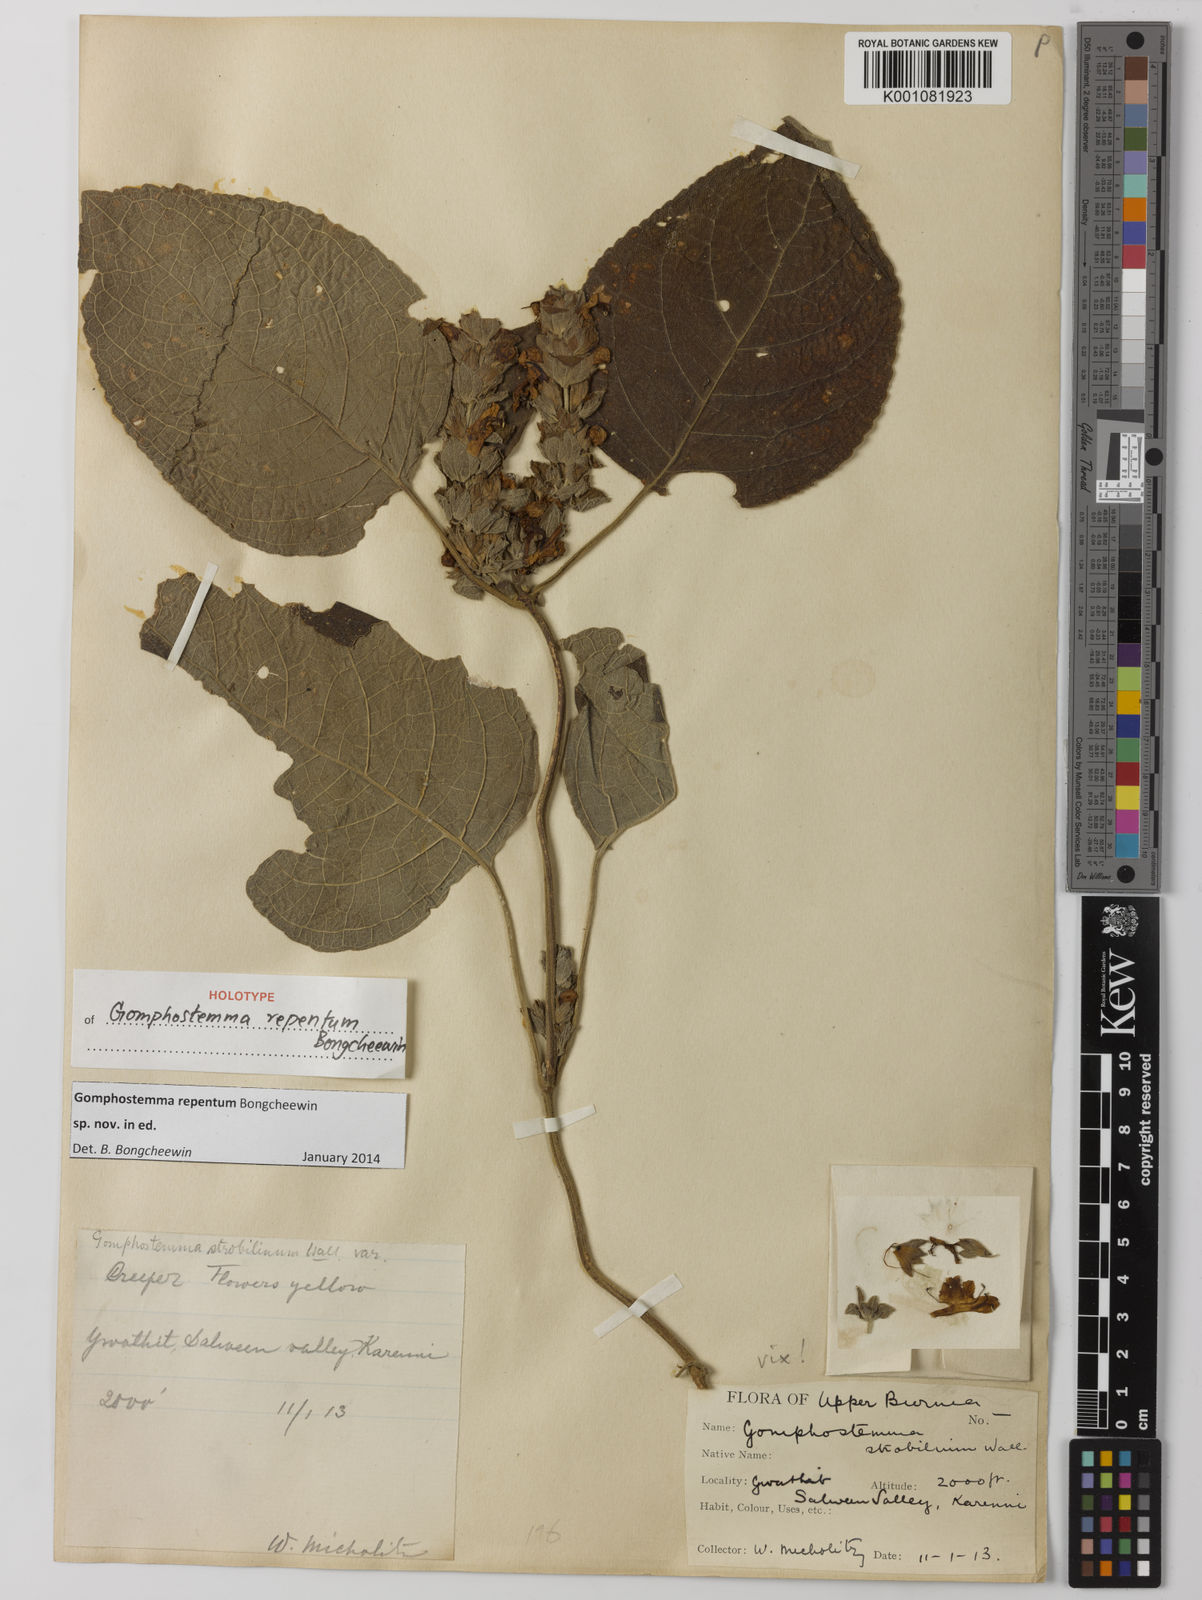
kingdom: Plantae
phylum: Tracheophyta
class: Magnoliopsida
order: Lamiales
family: Lamiaceae
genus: Gomphostemma
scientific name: Gomphostemma
